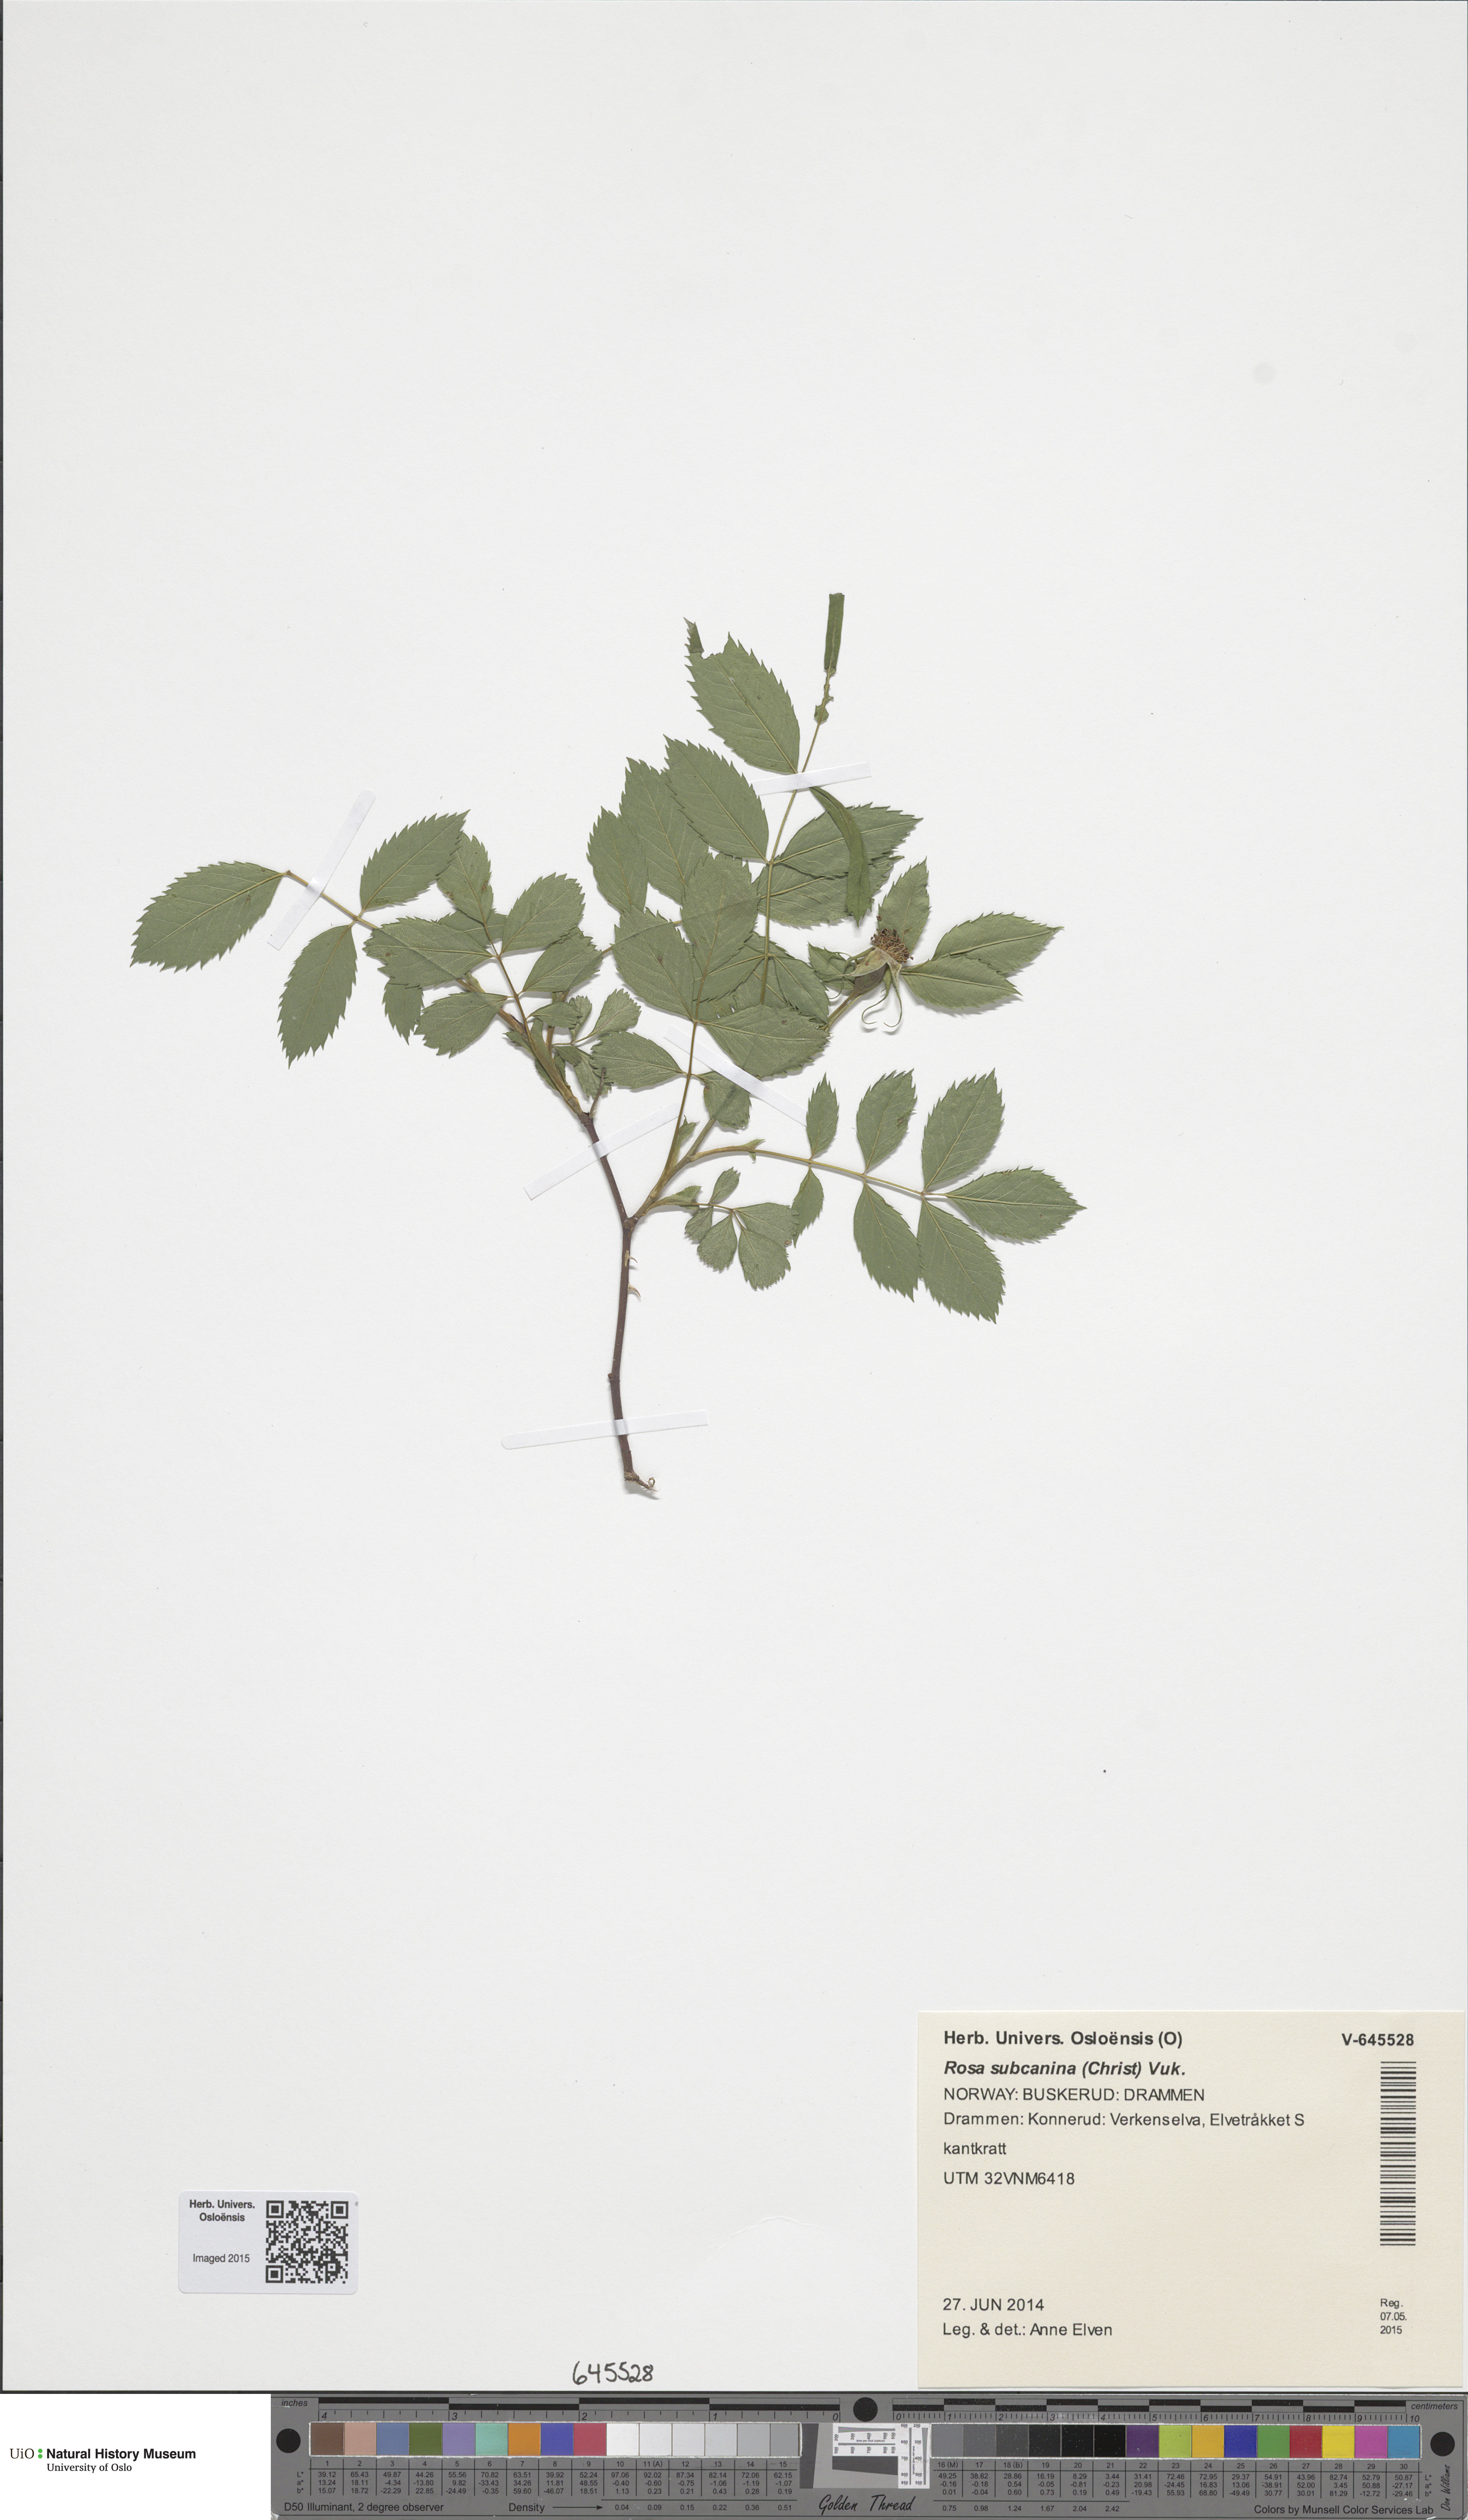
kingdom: Plantae
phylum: Tracheophyta
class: Magnoliopsida
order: Rosales
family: Rosaceae
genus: Rosa
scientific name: Rosa subcanina
